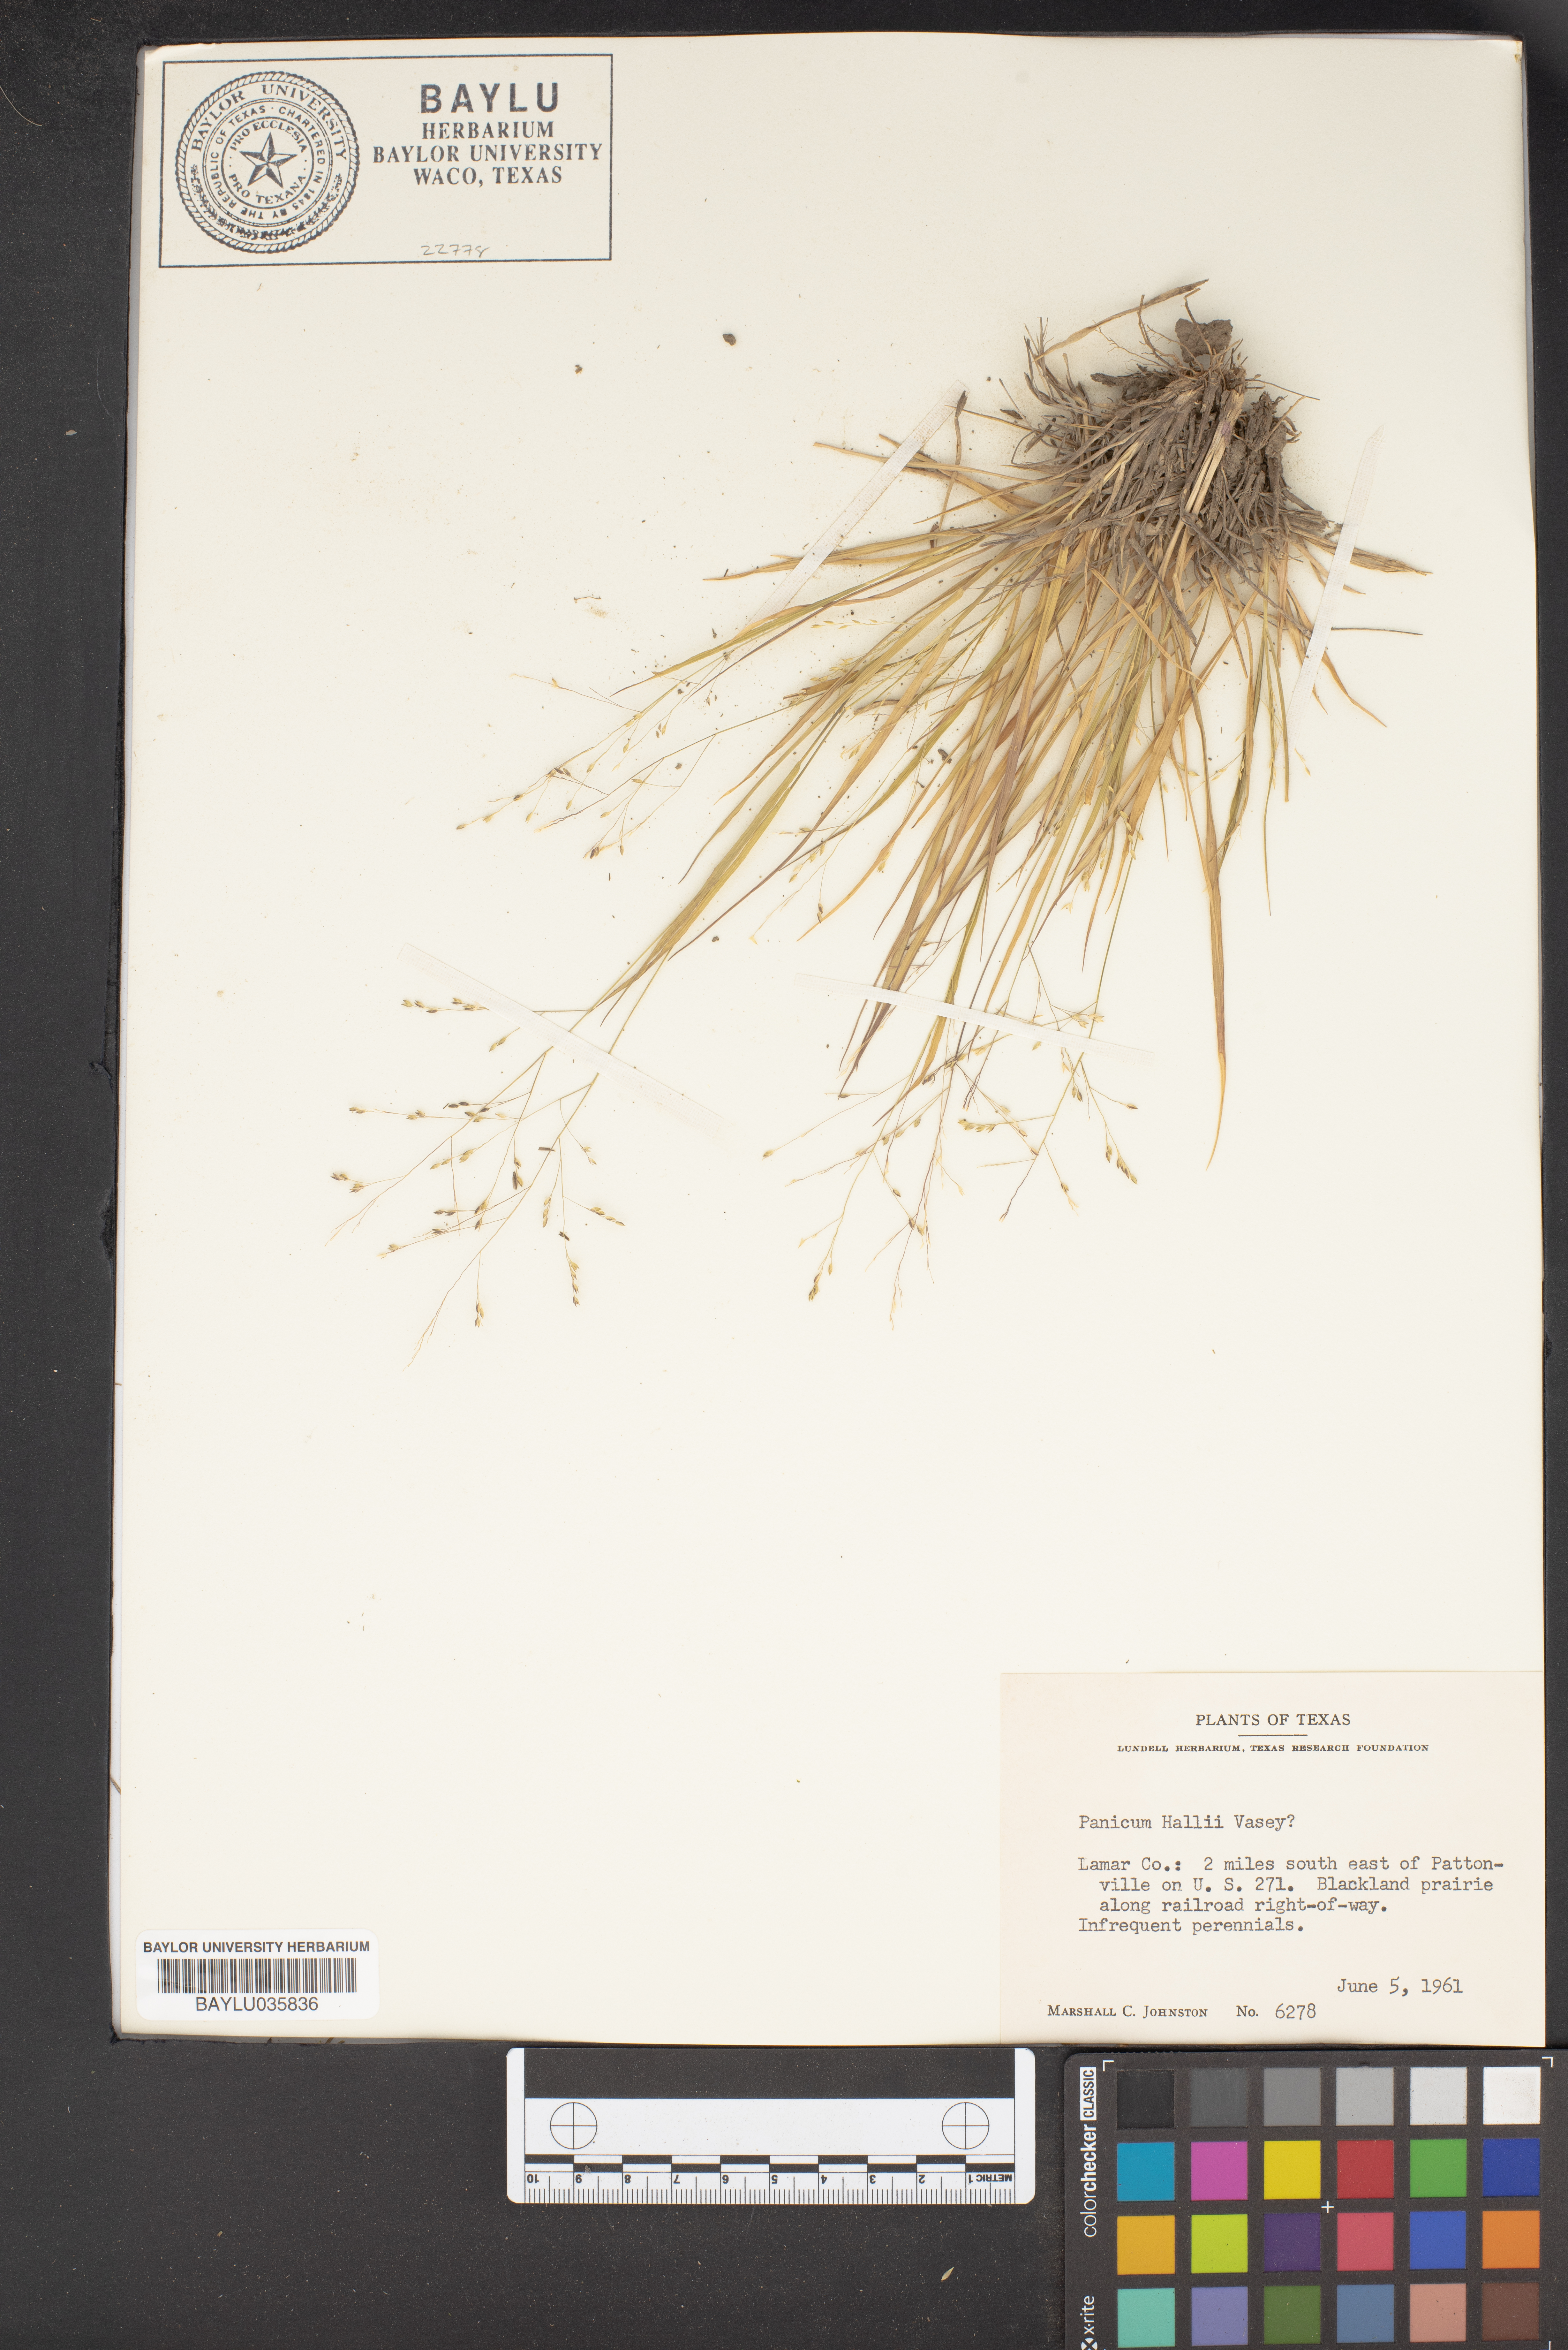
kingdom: Plantae
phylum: Tracheophyta
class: Liliopsida
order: Poales
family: Poaceae
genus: Panicum
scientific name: Panicum hallii
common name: Hall's witchgrass
